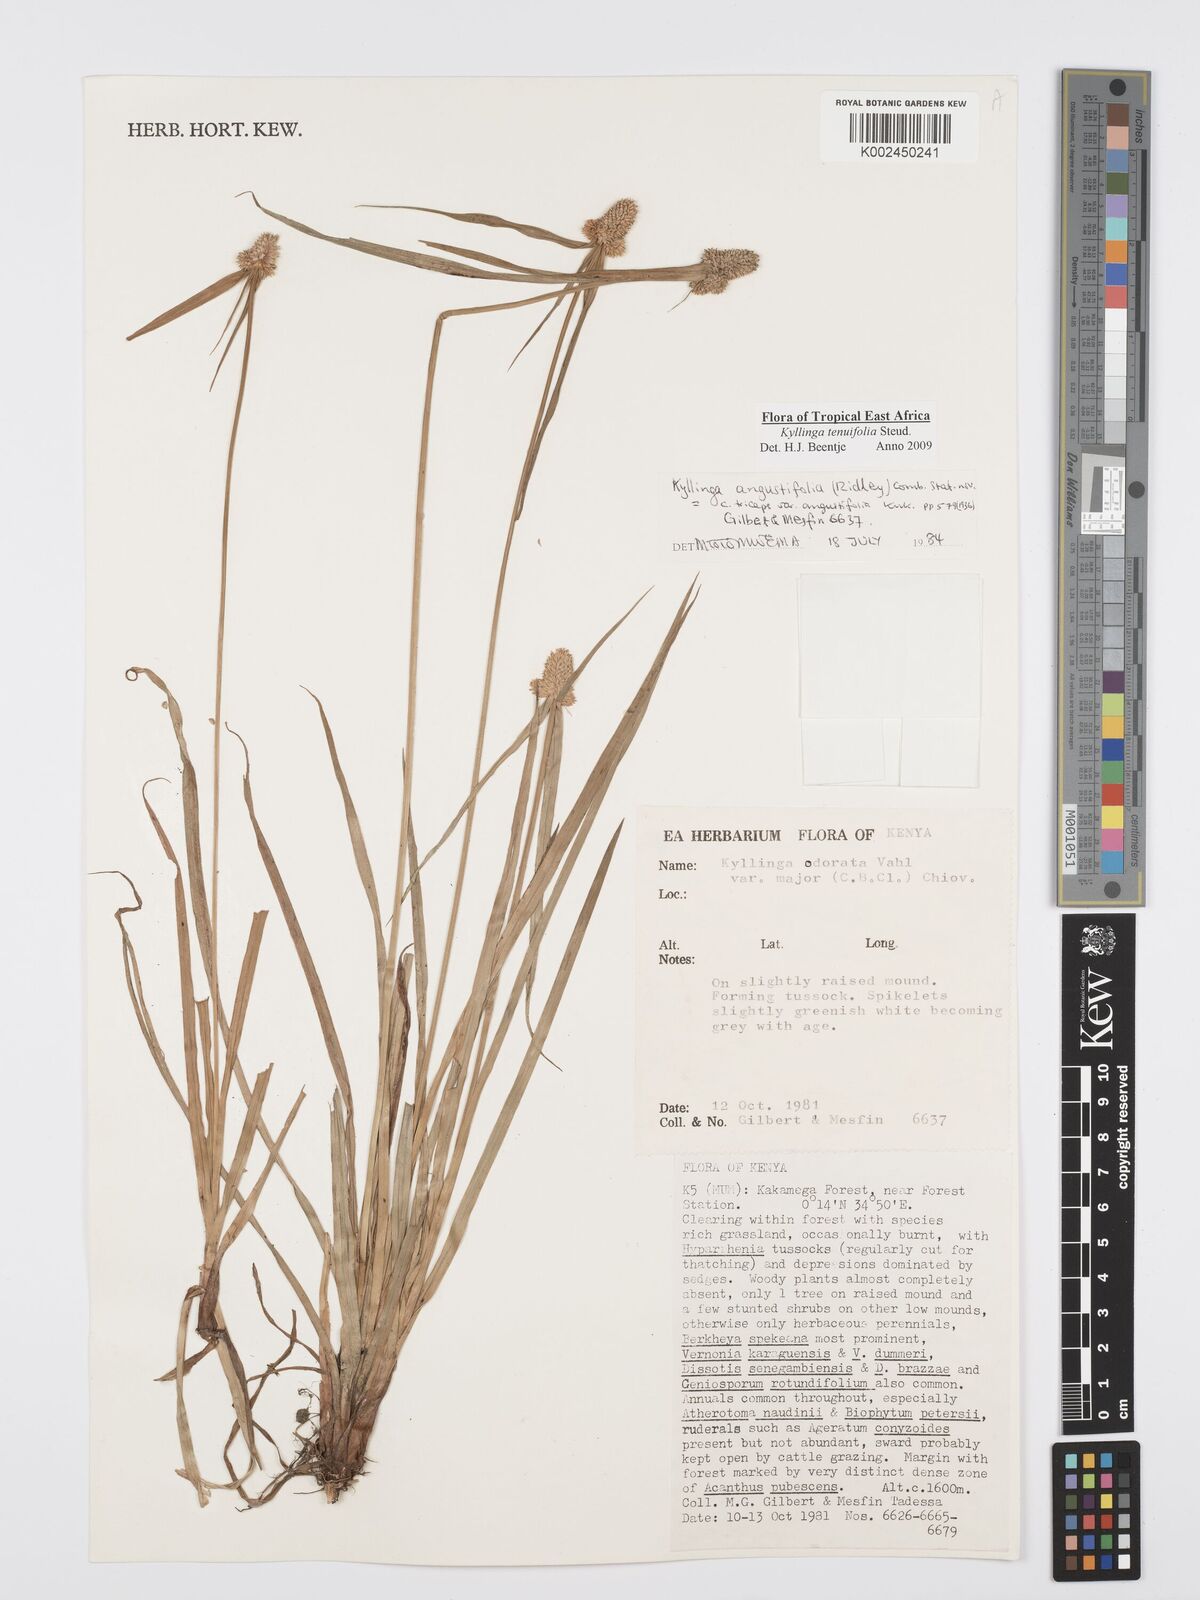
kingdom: Plantae
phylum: Tracheophyta
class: Liliopsida
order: Poales
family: Cyperaceae
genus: Cyperus
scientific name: Cyperus
